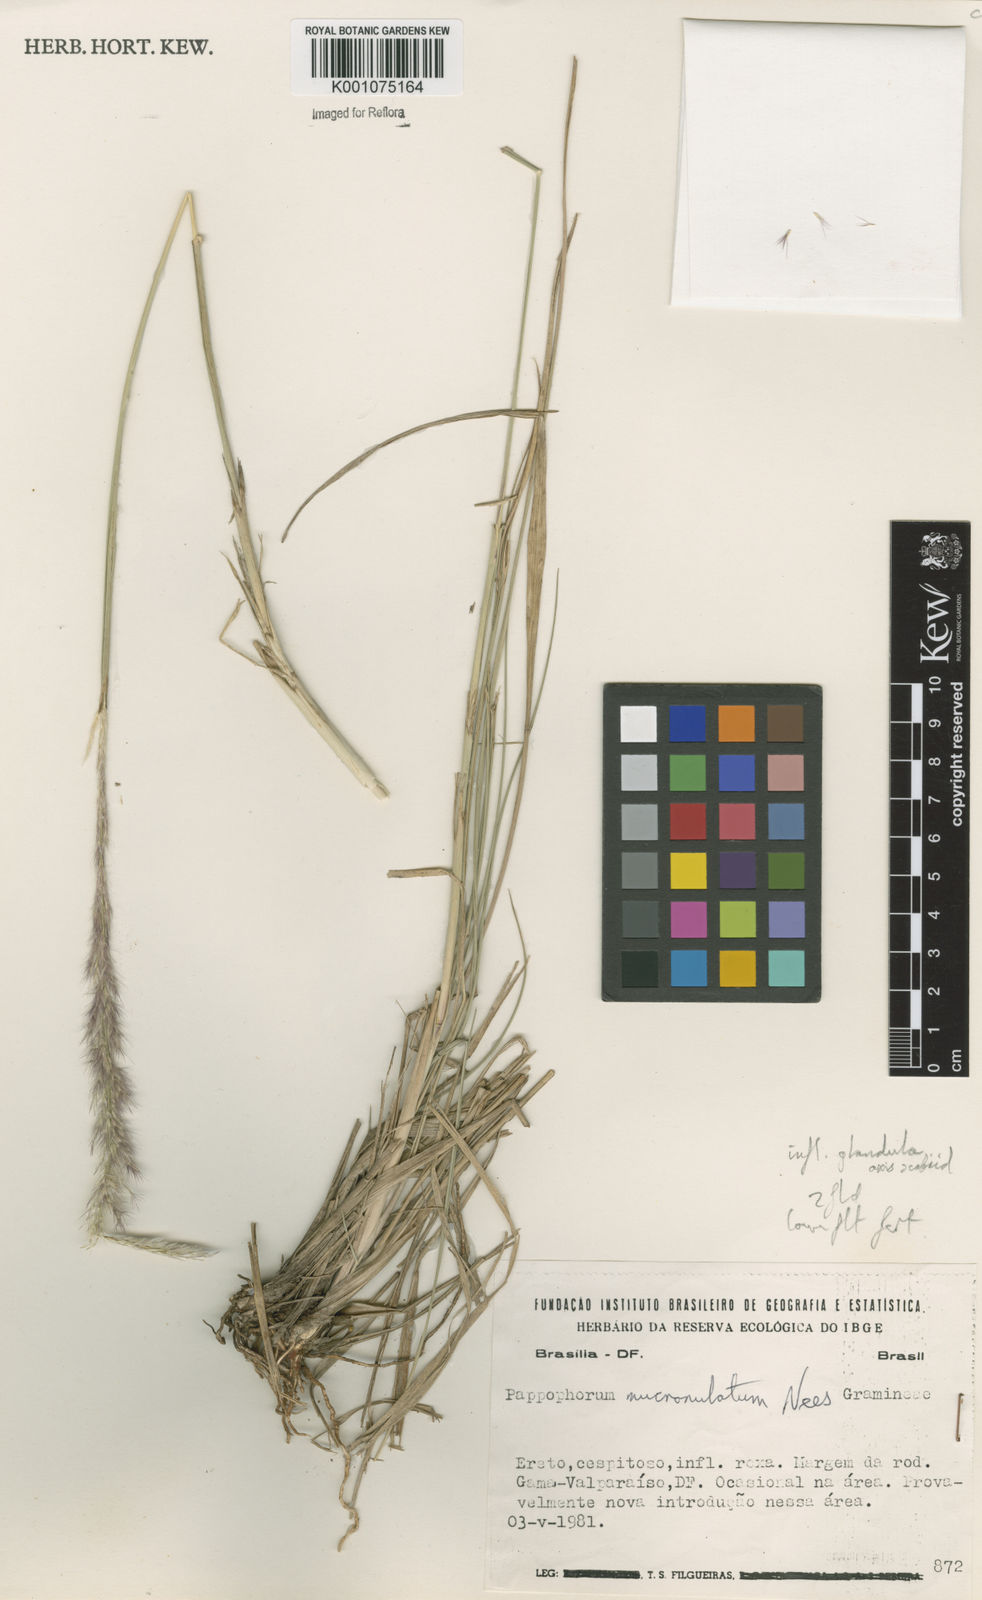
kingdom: Plantae
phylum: Tracheophyta
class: Liliopsida
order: Poales
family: Poaceae
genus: Pappophorum
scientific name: Pappophorum mucronulatum
